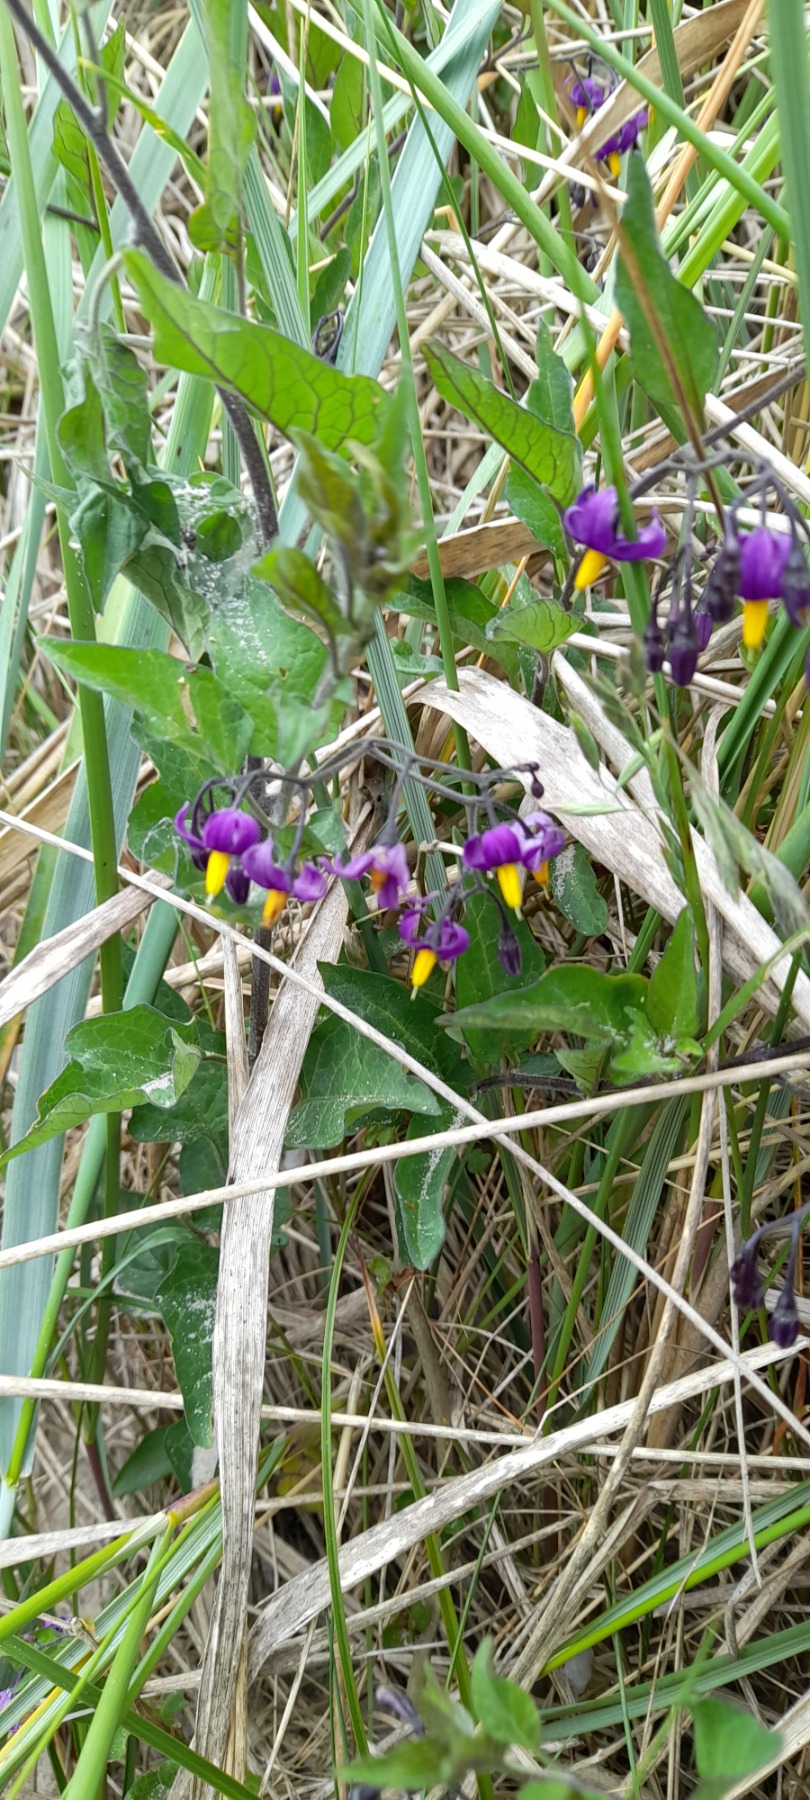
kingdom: Plantae
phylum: Tracheophyta
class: Magnoliopsida
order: Solanales
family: Solanaceae
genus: Solanum
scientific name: Solanum dulcamara
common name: Bittersød natskygge
